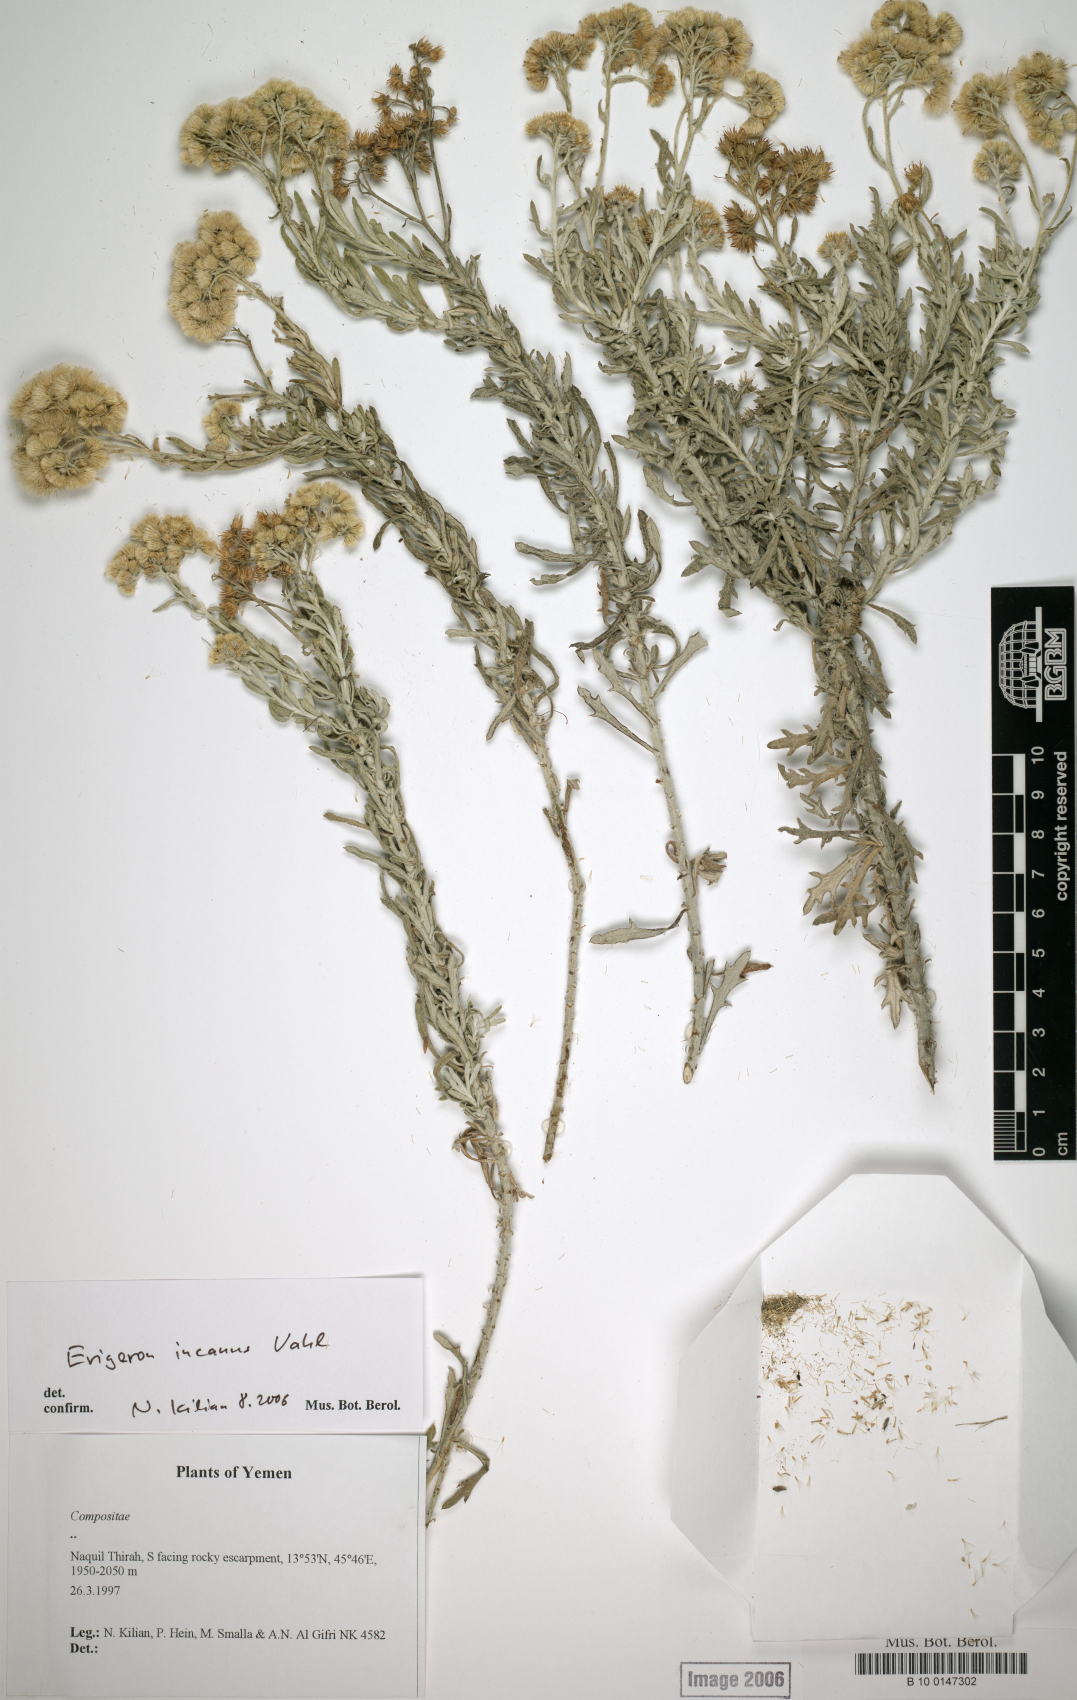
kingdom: Plantae
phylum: Tracheophyta
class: Magnoliopsida
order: Asterales
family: Asteraceae
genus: Conyza
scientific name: Conyza incana
